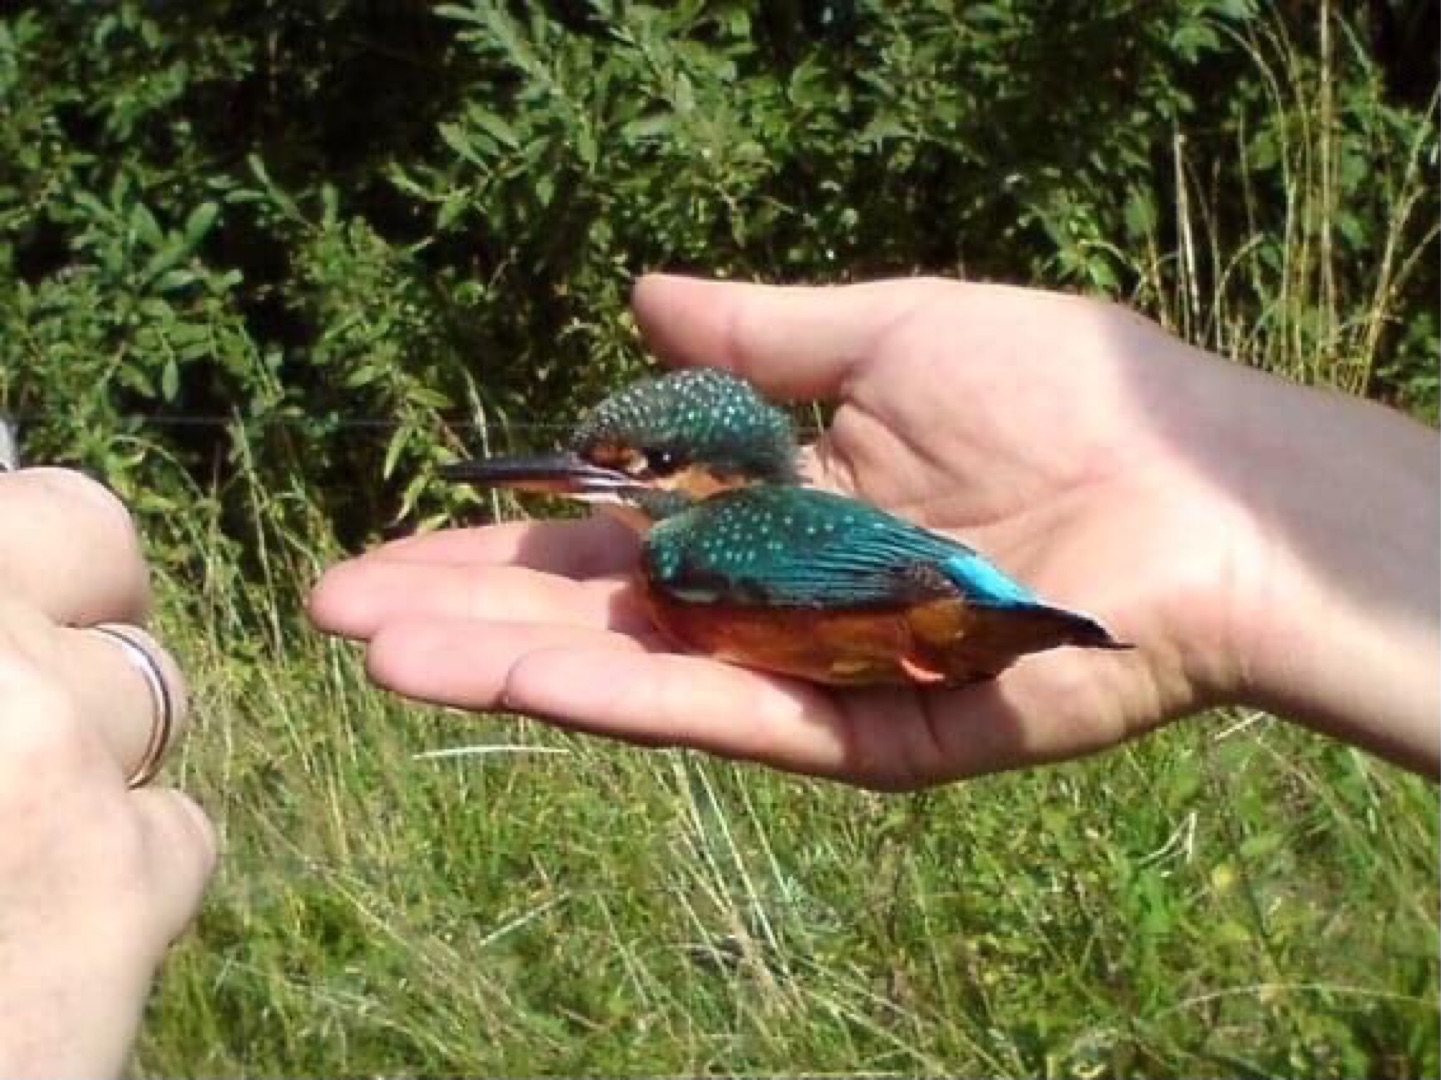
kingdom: Animalia
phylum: Chordata
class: Aves
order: Coraciiformes
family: Alcedinidae
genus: Alcedo
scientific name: Alcedo atthis
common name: Isfugl
